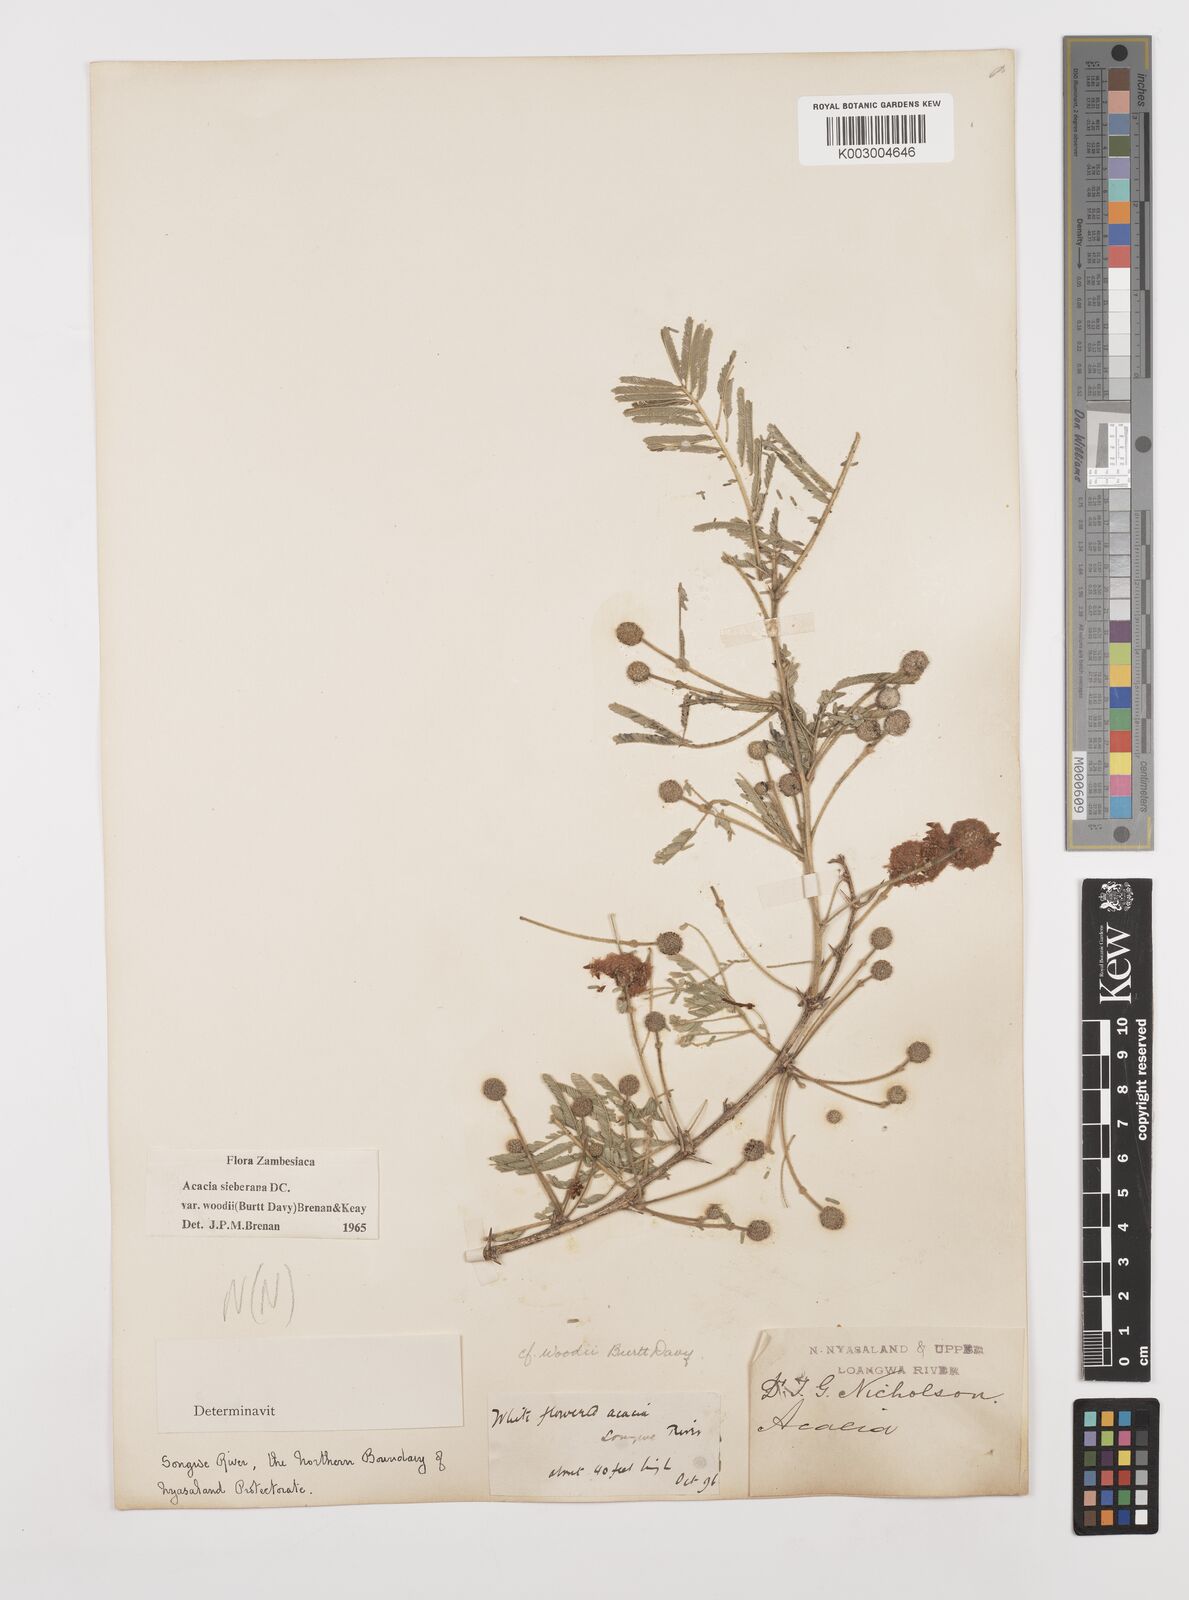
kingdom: Plantae
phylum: Tracheophyta
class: Magnoliopsida
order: Fabales
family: Fabaceae
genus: Vachellia
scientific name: Vachellia sieberiana
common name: Flat-topped thorn
